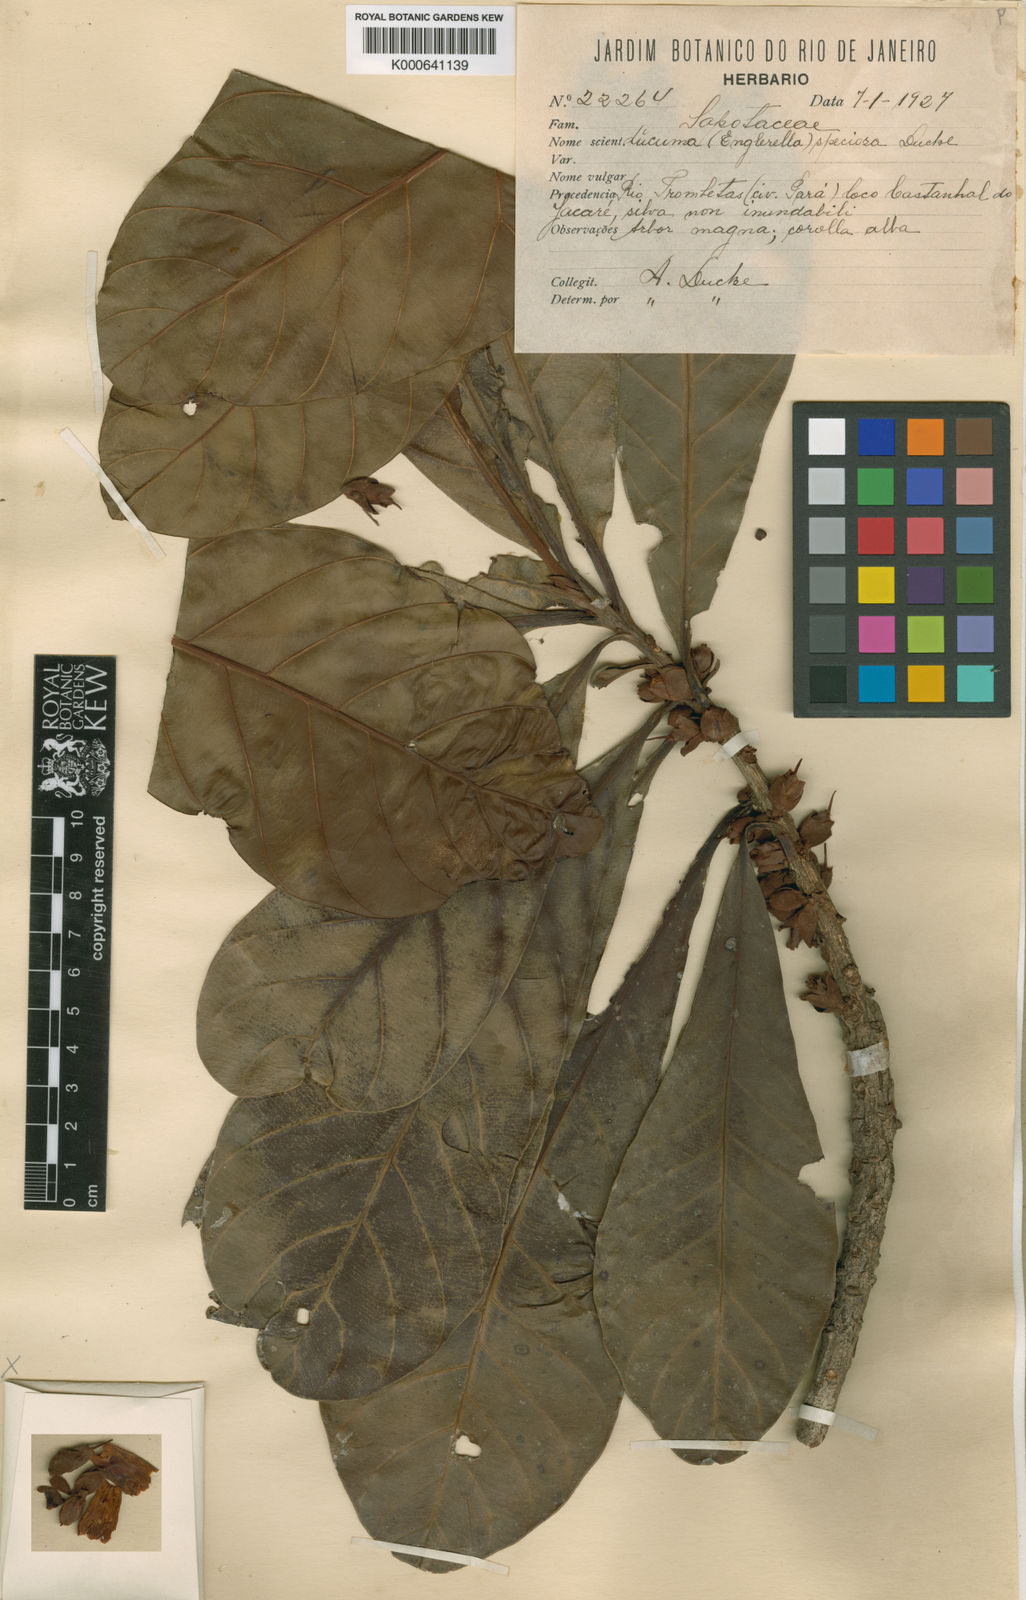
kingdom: Plantae
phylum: Tracheophyta
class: Magnoliopsida
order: Ericales
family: Sapotaceae
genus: Pouteria
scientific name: Pouteria speciosa
